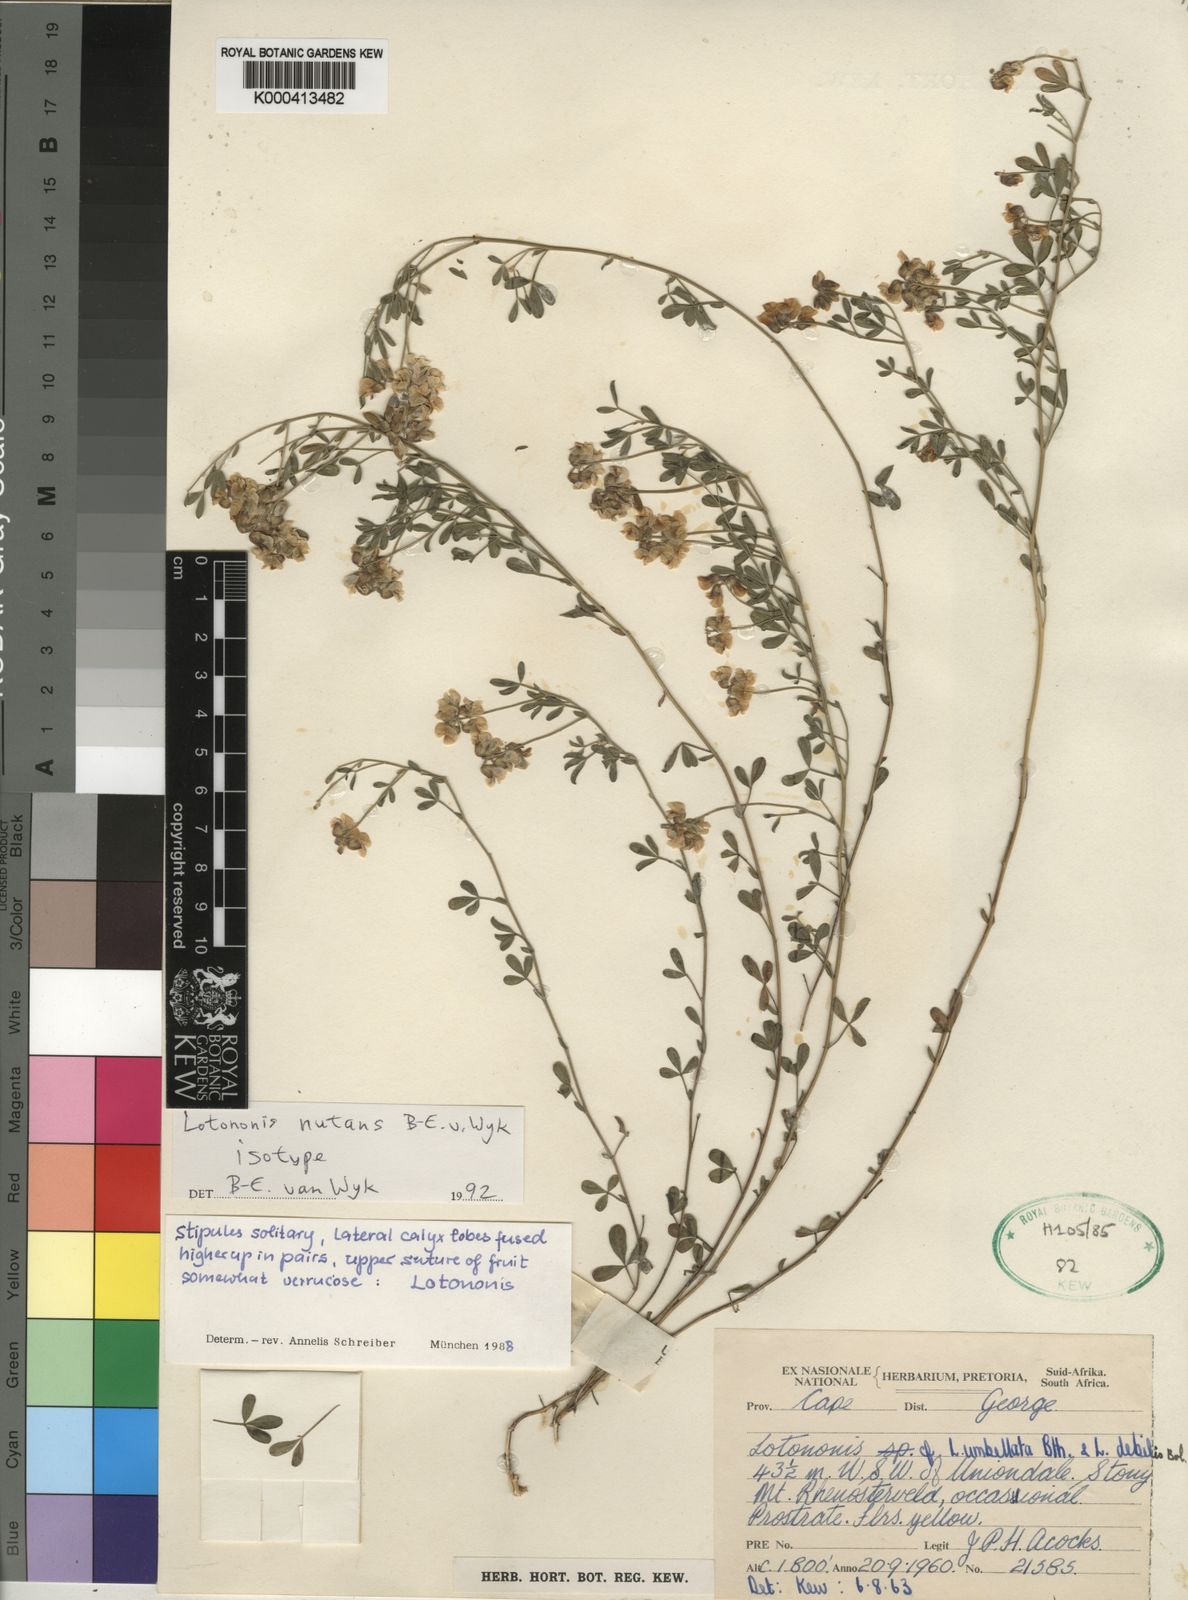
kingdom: Plantae
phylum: Tracheophyta
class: Magnoliopsida
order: Fabales
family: Fabaceae
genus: Lotononis
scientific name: Lotononis nutans
